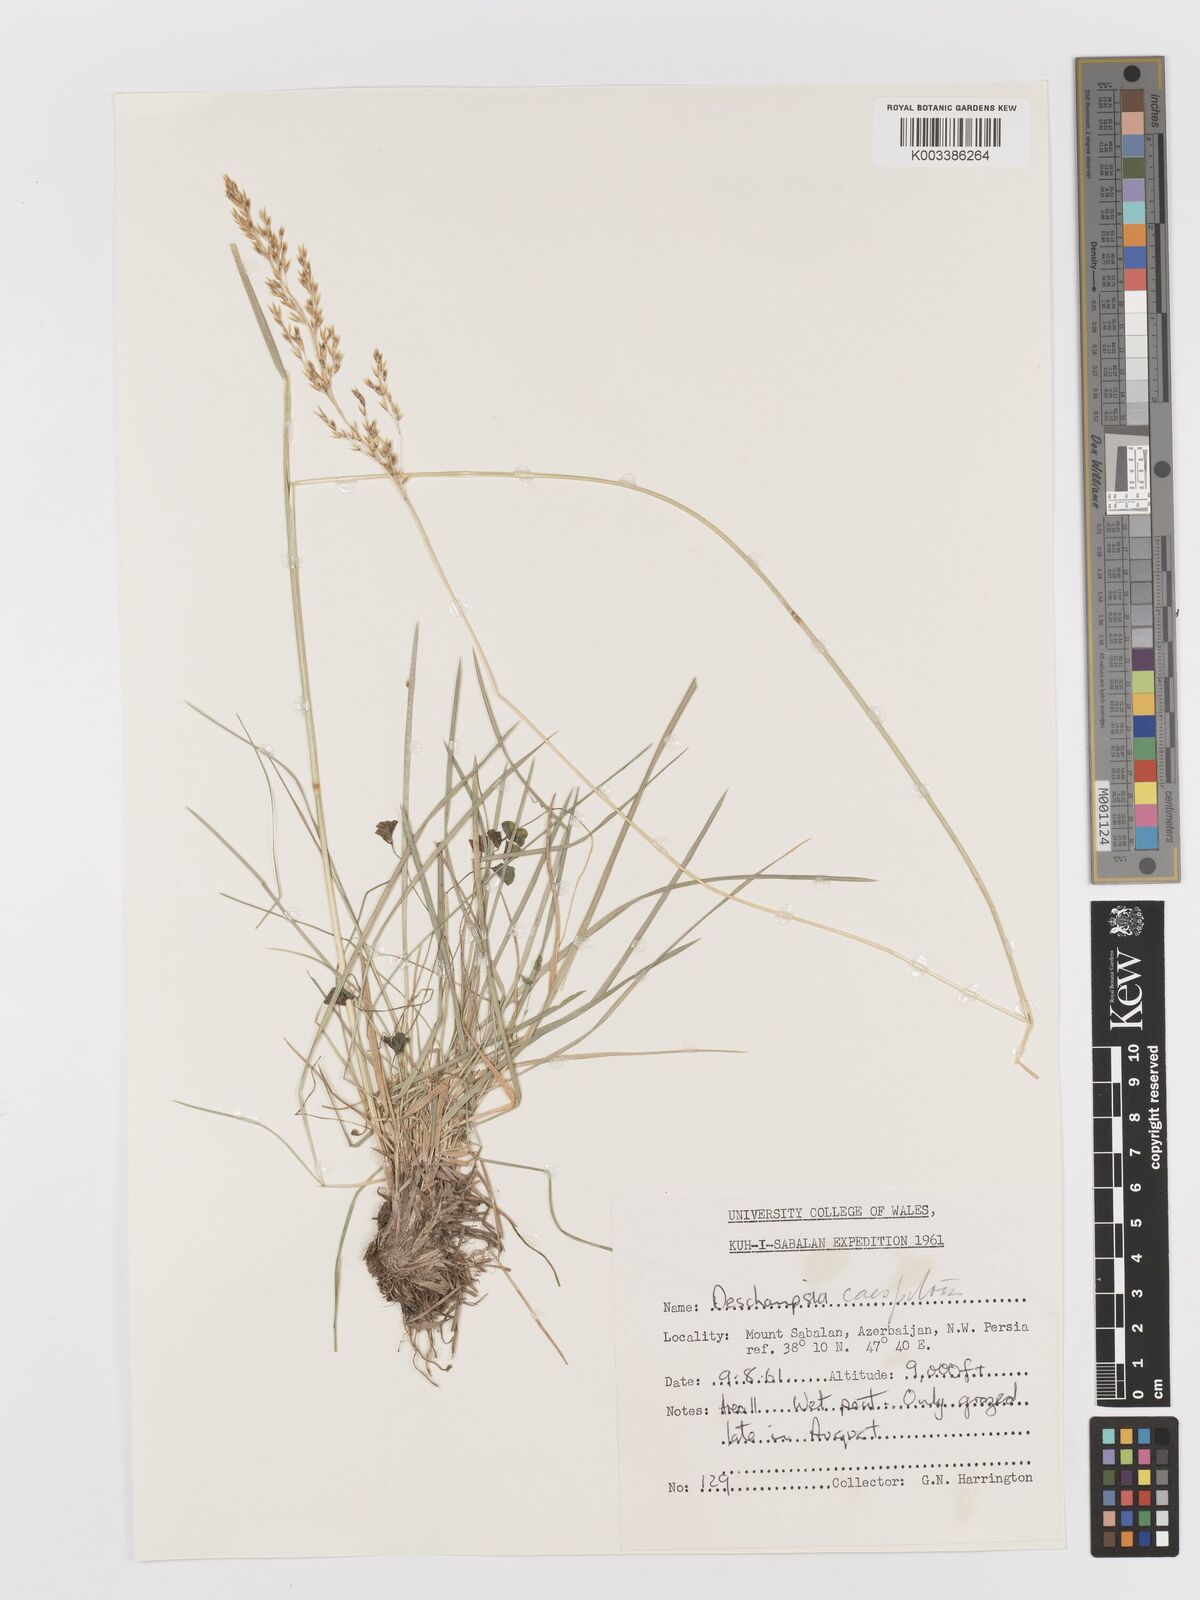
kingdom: Plantae
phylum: Tracheophyta
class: Liliopsida
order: Poales
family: Poaceae
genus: Deschampsia
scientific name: Deschampsia cespitosa
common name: Tufted hair-grass
